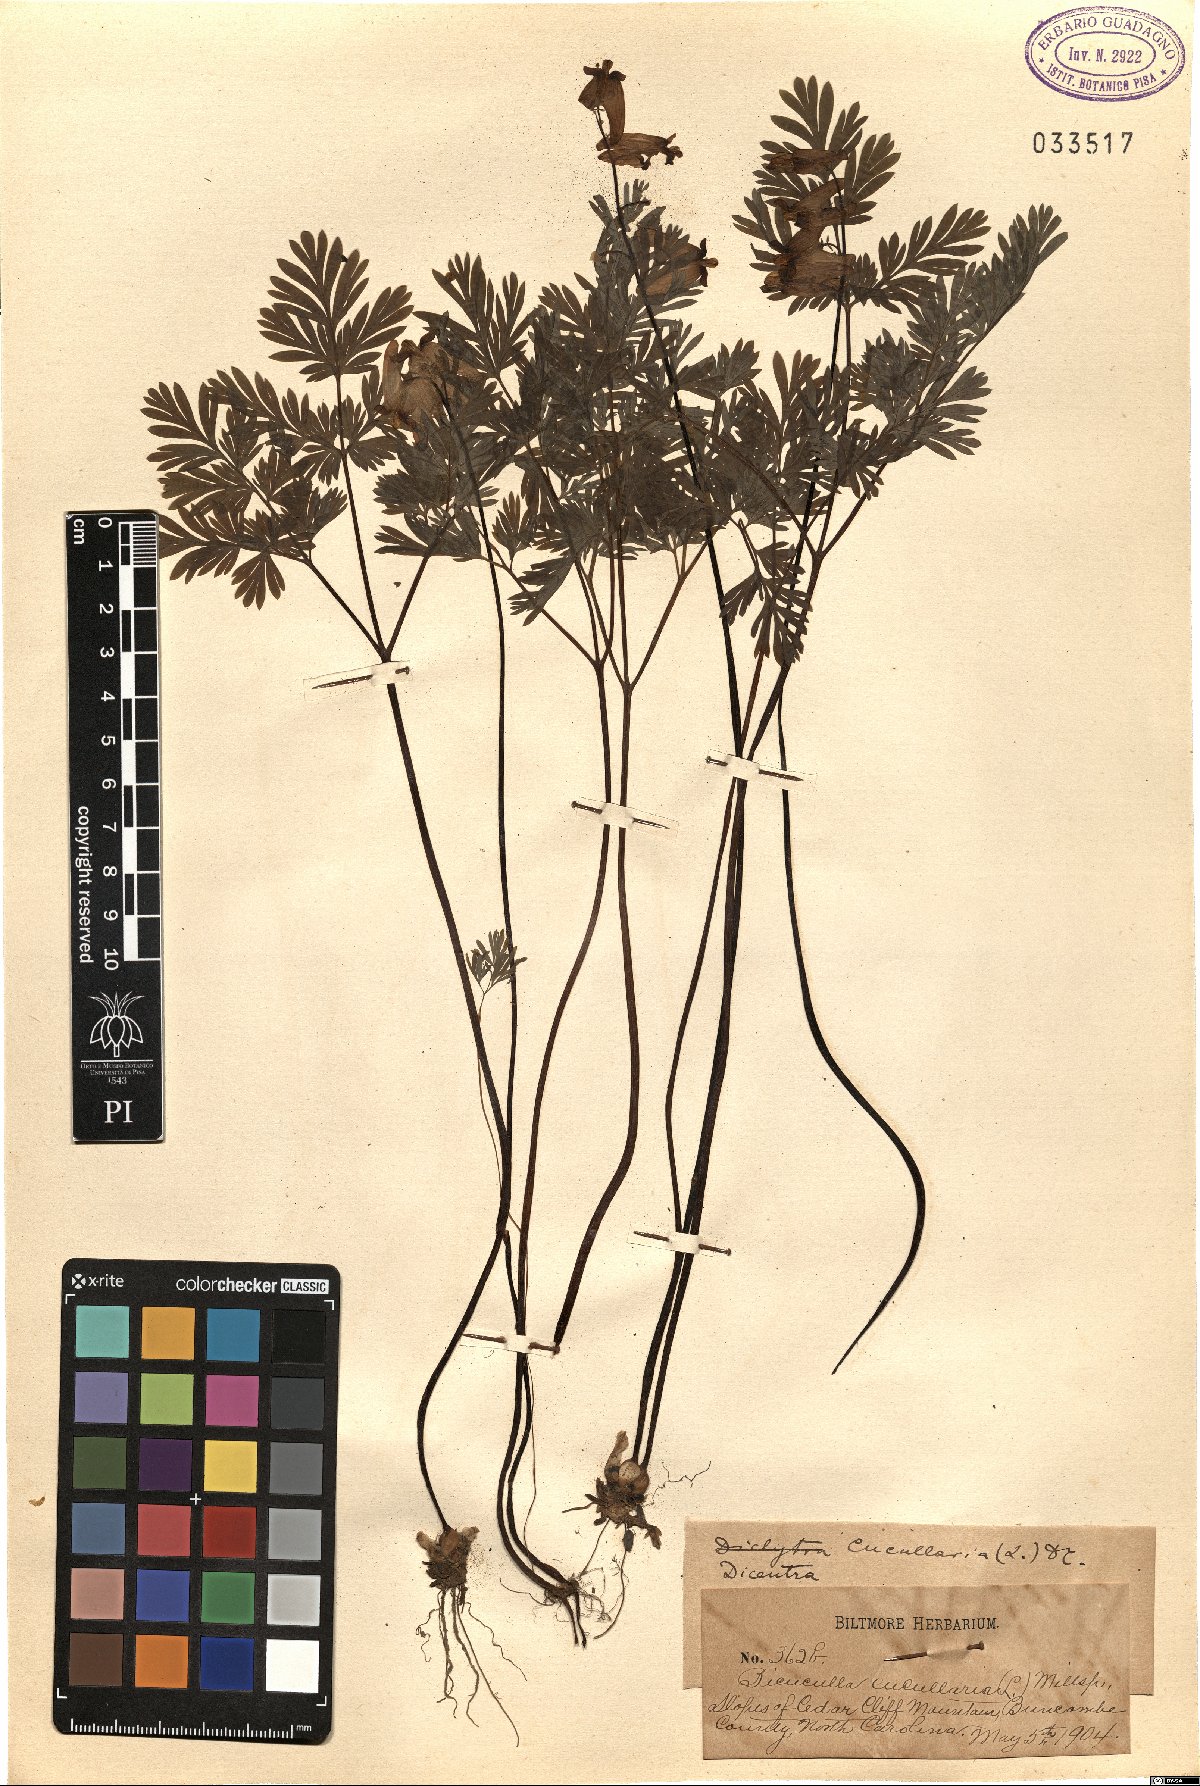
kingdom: Plantae
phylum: Tracheophyta
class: Magnoliopsida
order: Ranunculales
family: Papaveraceae
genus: Dicentra
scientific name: Dicentra cucullaria
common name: Dutchman's breeches
